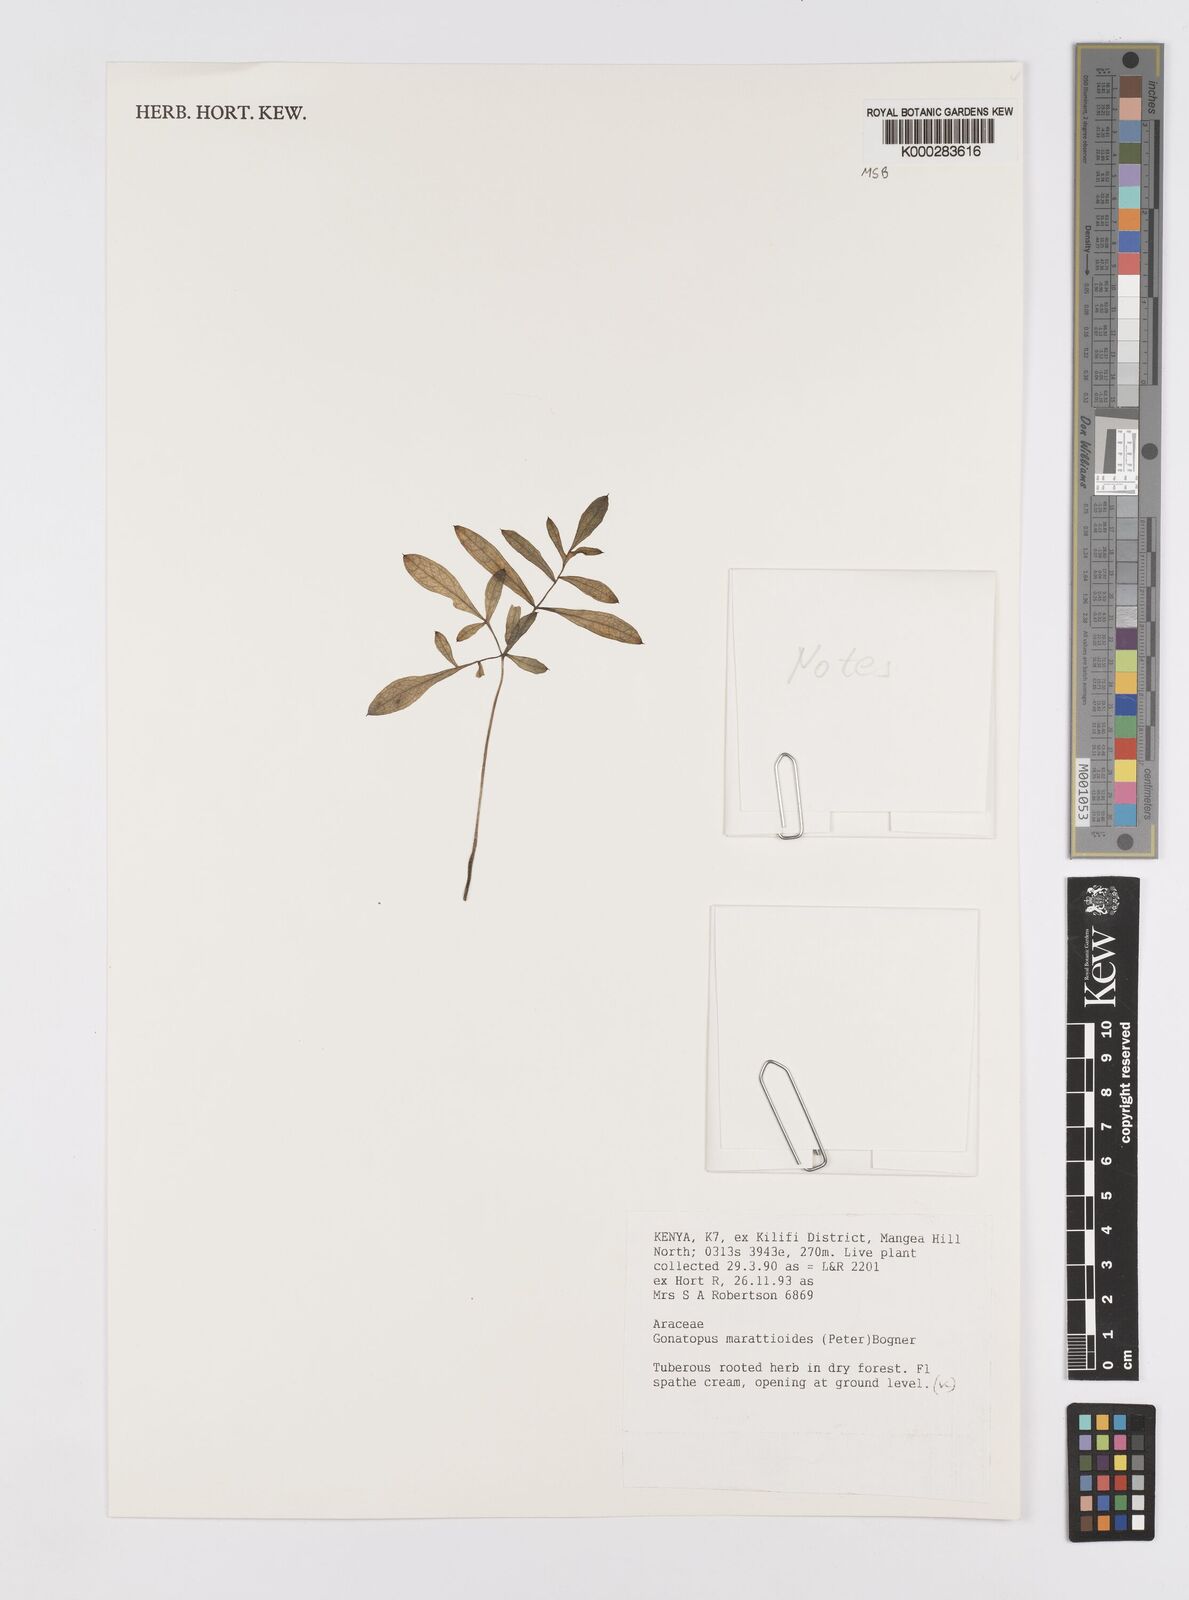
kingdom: Plantae
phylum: Tracheophyta
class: Liliopsida
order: Alismatales
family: Araceae
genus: Gonatopus
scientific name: Gonatopus marattioides
